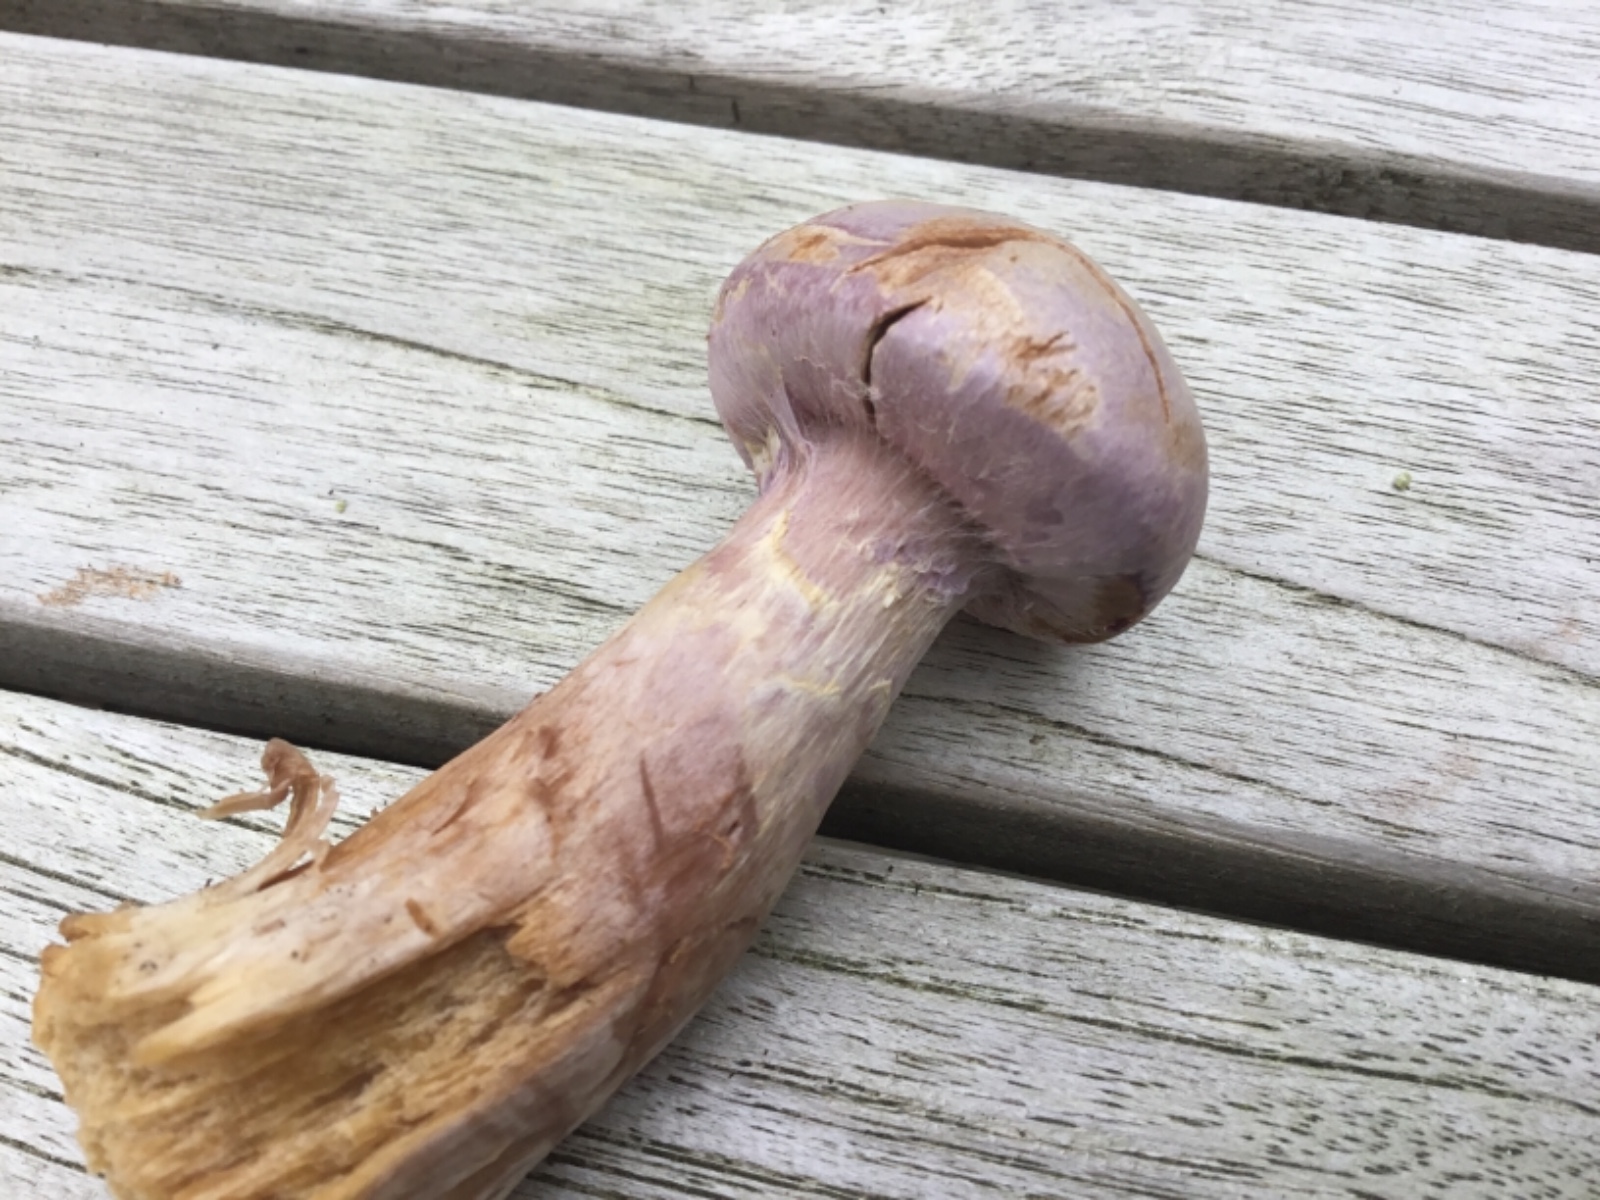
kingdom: Fungi
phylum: Basidiomycota
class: Agaricomycetes
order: Agaricales
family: Cortinariaceae
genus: Cortinarius
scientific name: Cortinarius traganus
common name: safrankødet slørhat
